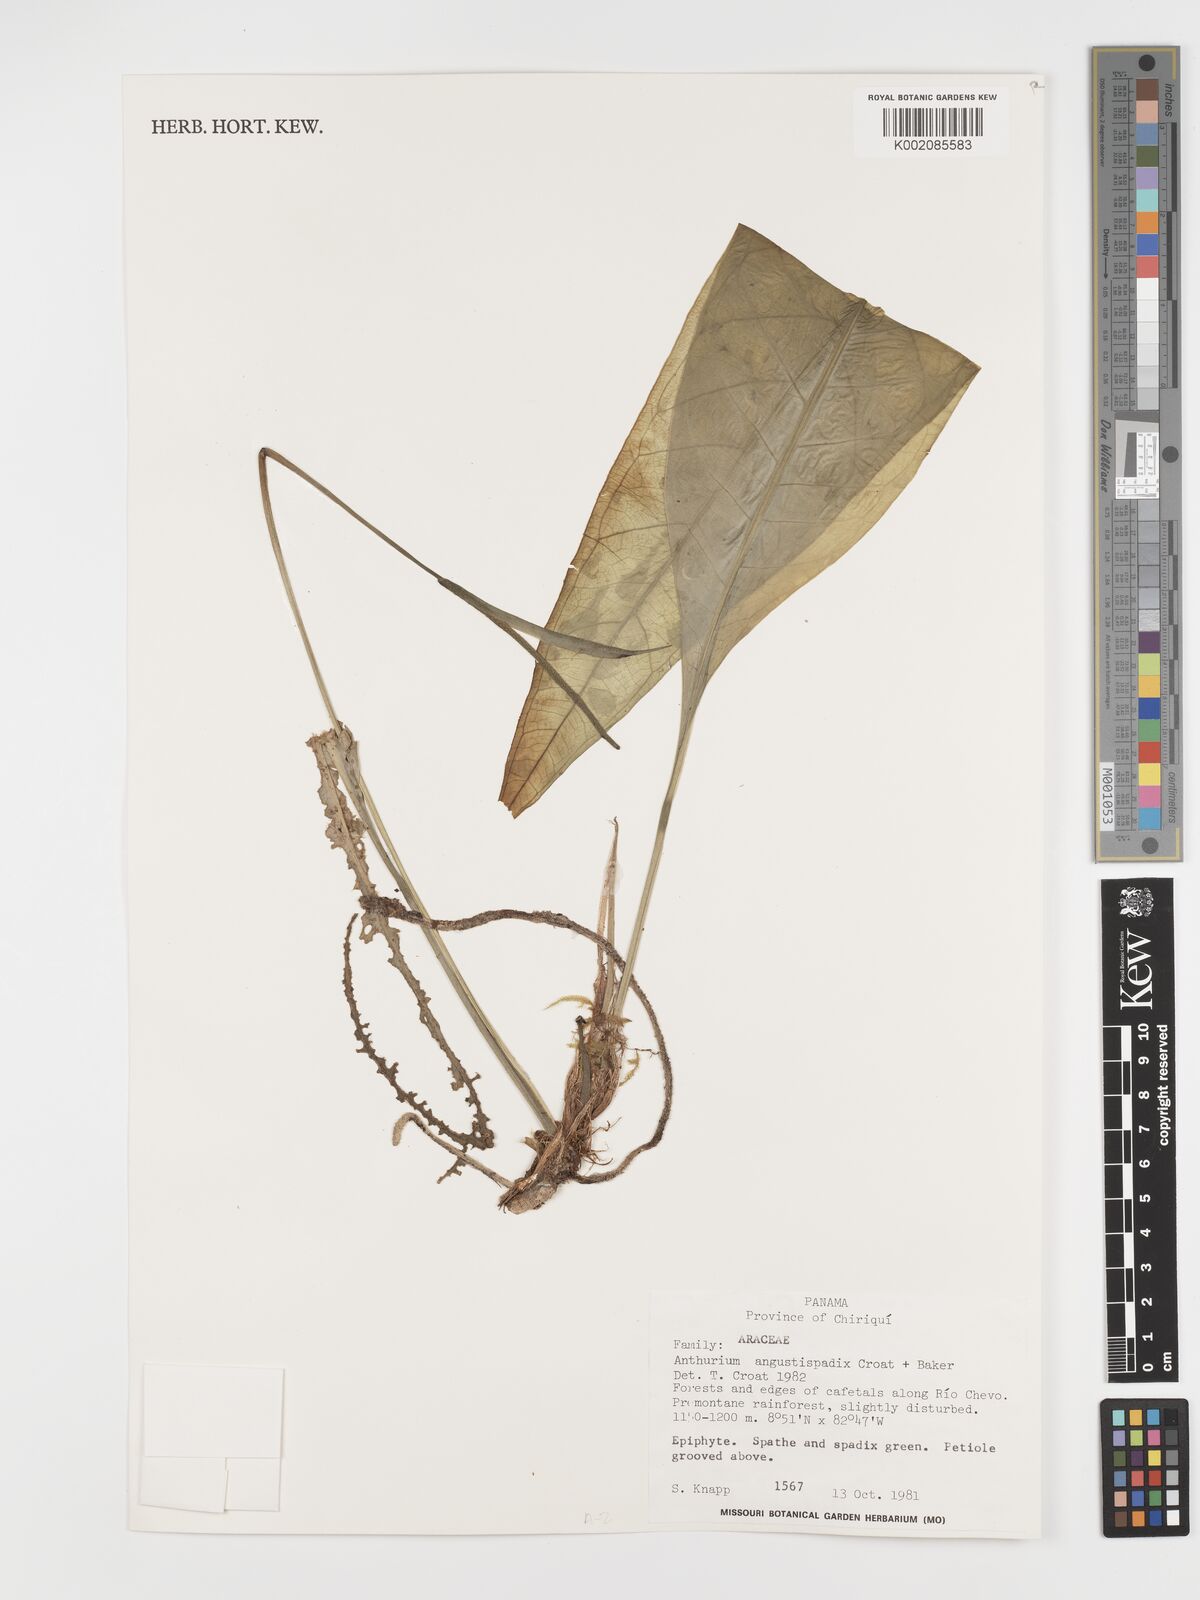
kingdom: Plantae
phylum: Tracheophyta
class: Liliopsida
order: Alismatales
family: Araceae
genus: Anthurium
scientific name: Anthurium angustispadix
